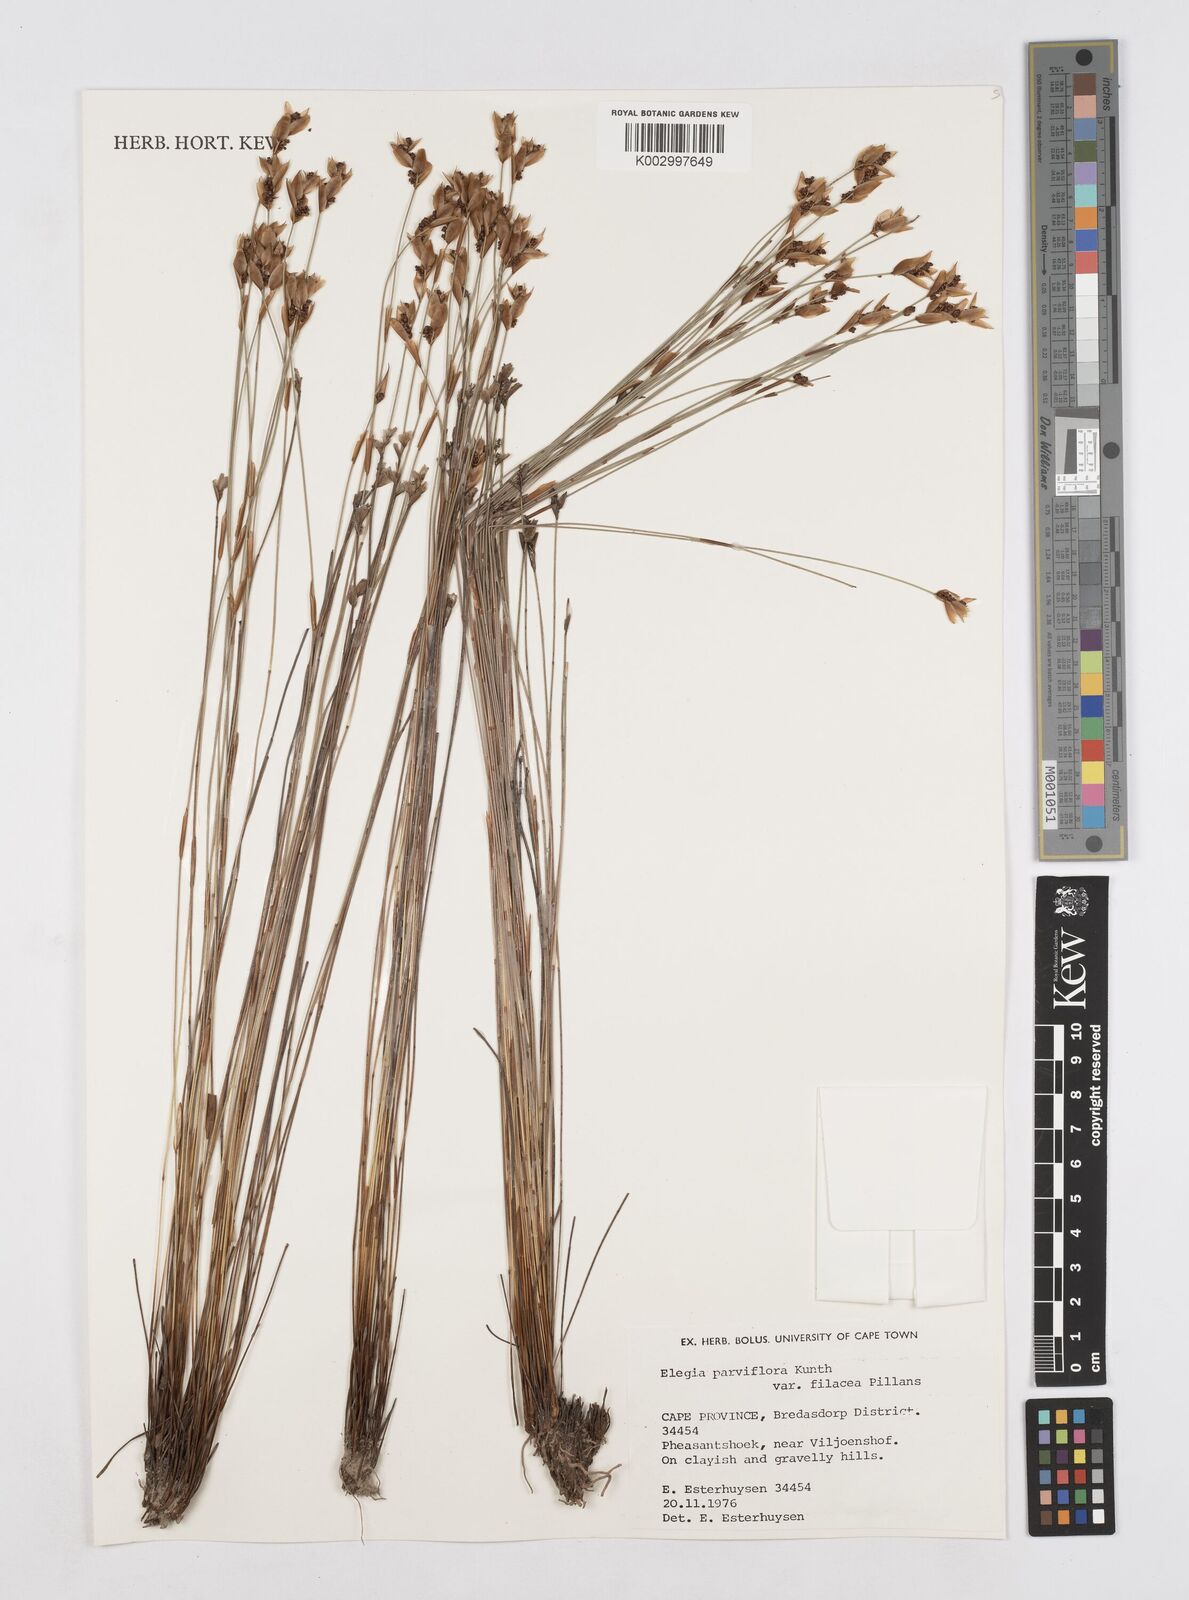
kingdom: Plantae
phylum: Tracheophyta
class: Liliopsida
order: Poales
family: Restionaceae
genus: Cannomois
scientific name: Cannomois parviflora
